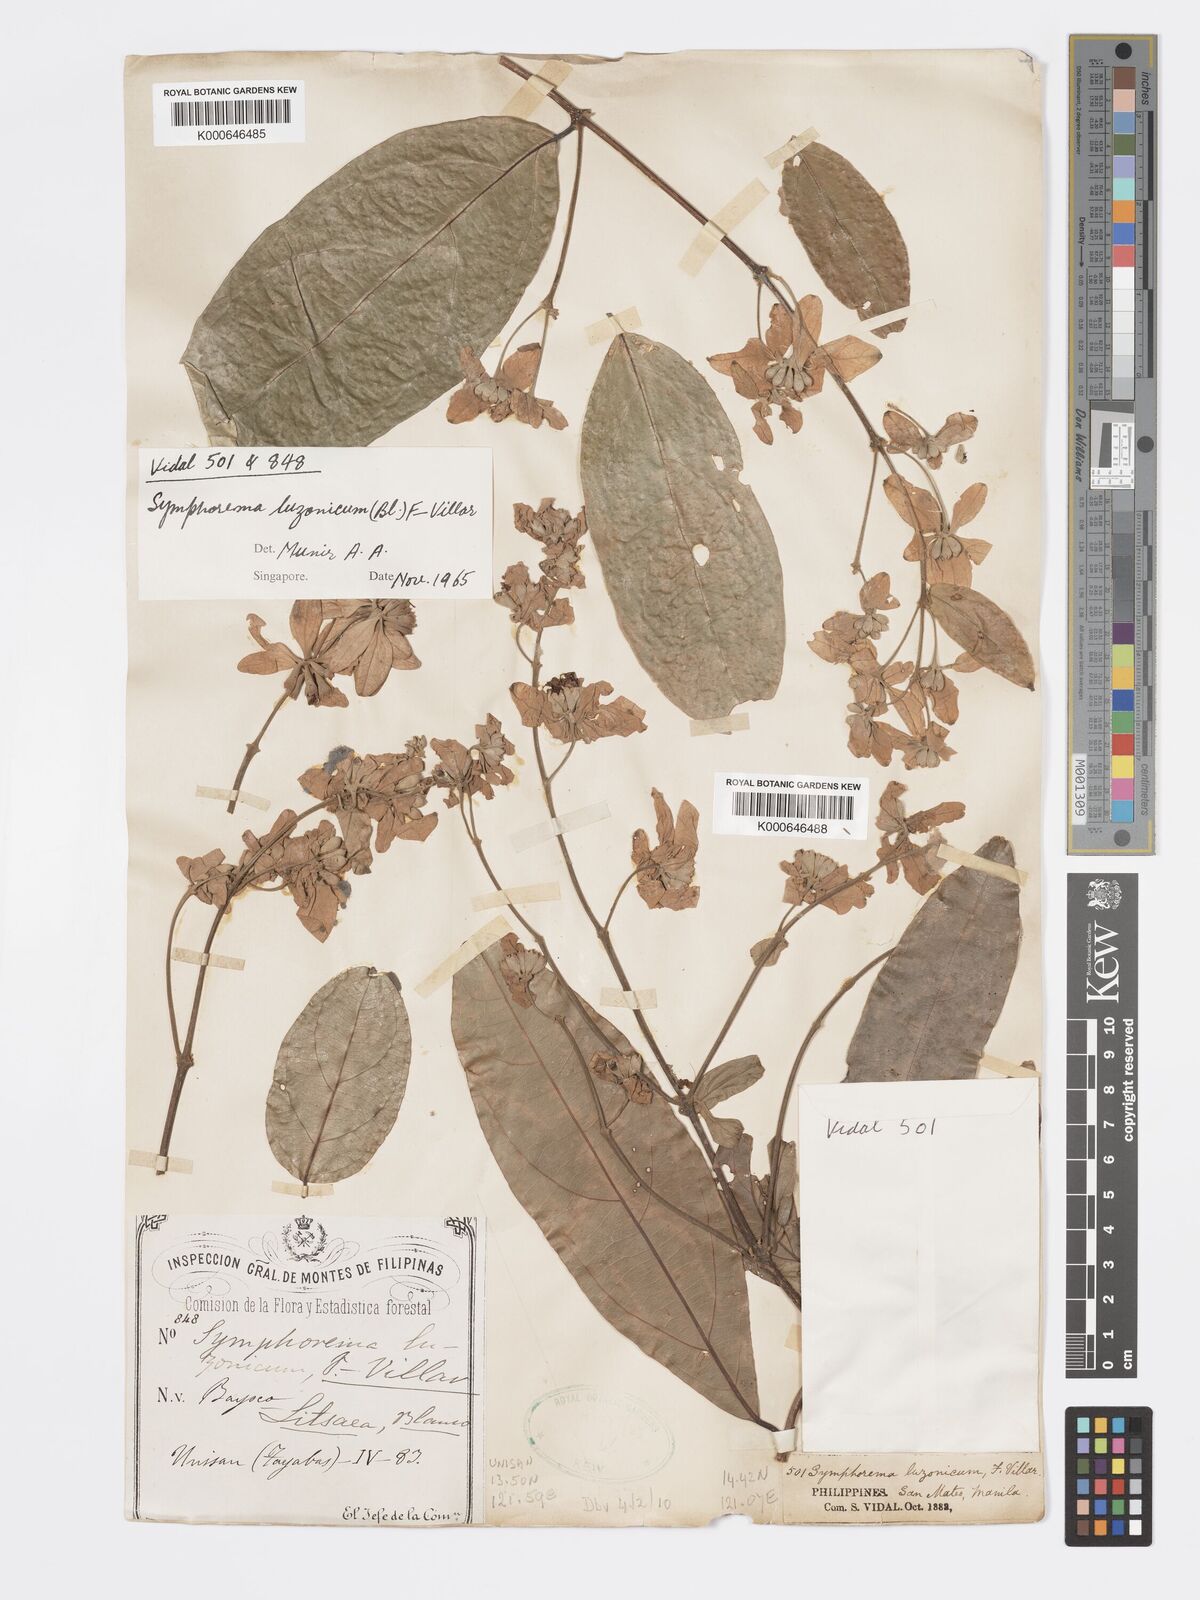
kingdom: Plantae
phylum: Tracheophyta
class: Magnoliopsida
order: Lamiales
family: Lamiaceae
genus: Symphorema
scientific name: Symphorema luzonicum
